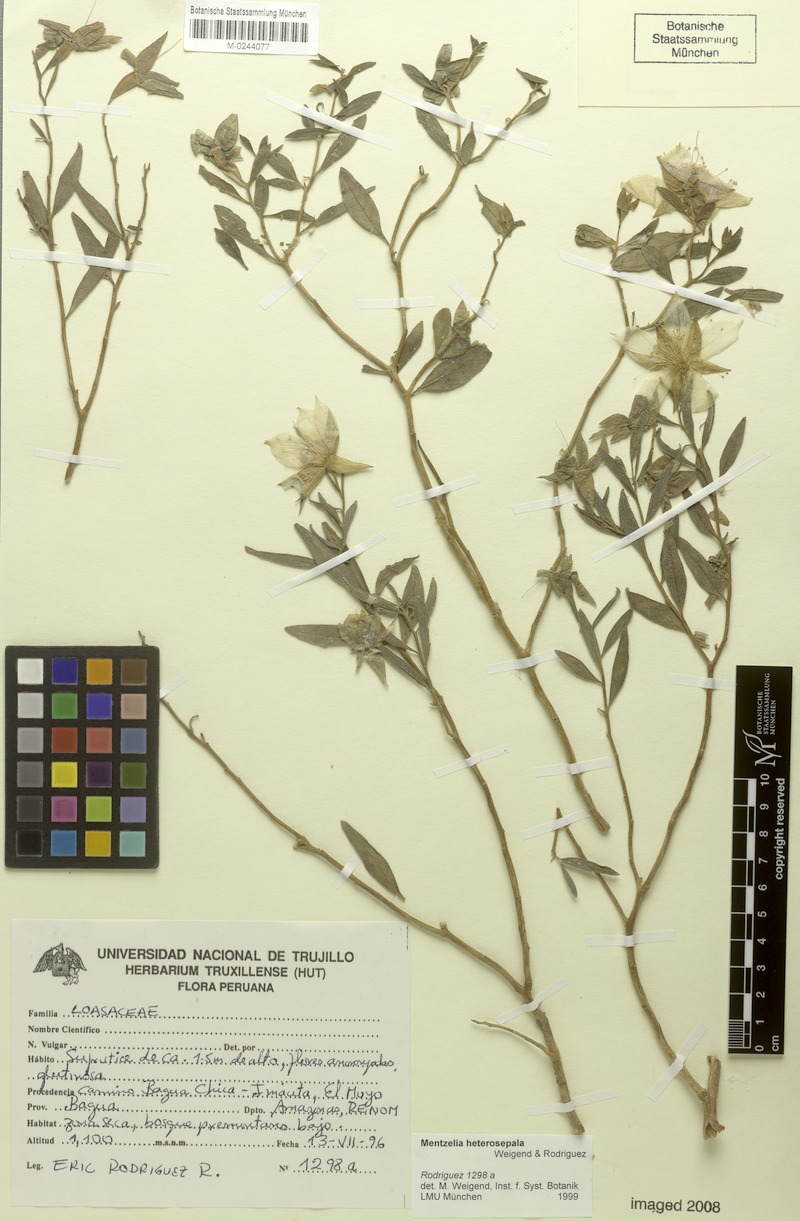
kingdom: Plantae
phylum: Tracheophyta
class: Magnoliopsida
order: Cornales
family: Loasaceae
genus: Mentzelia
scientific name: Mentzelia heterosepala
